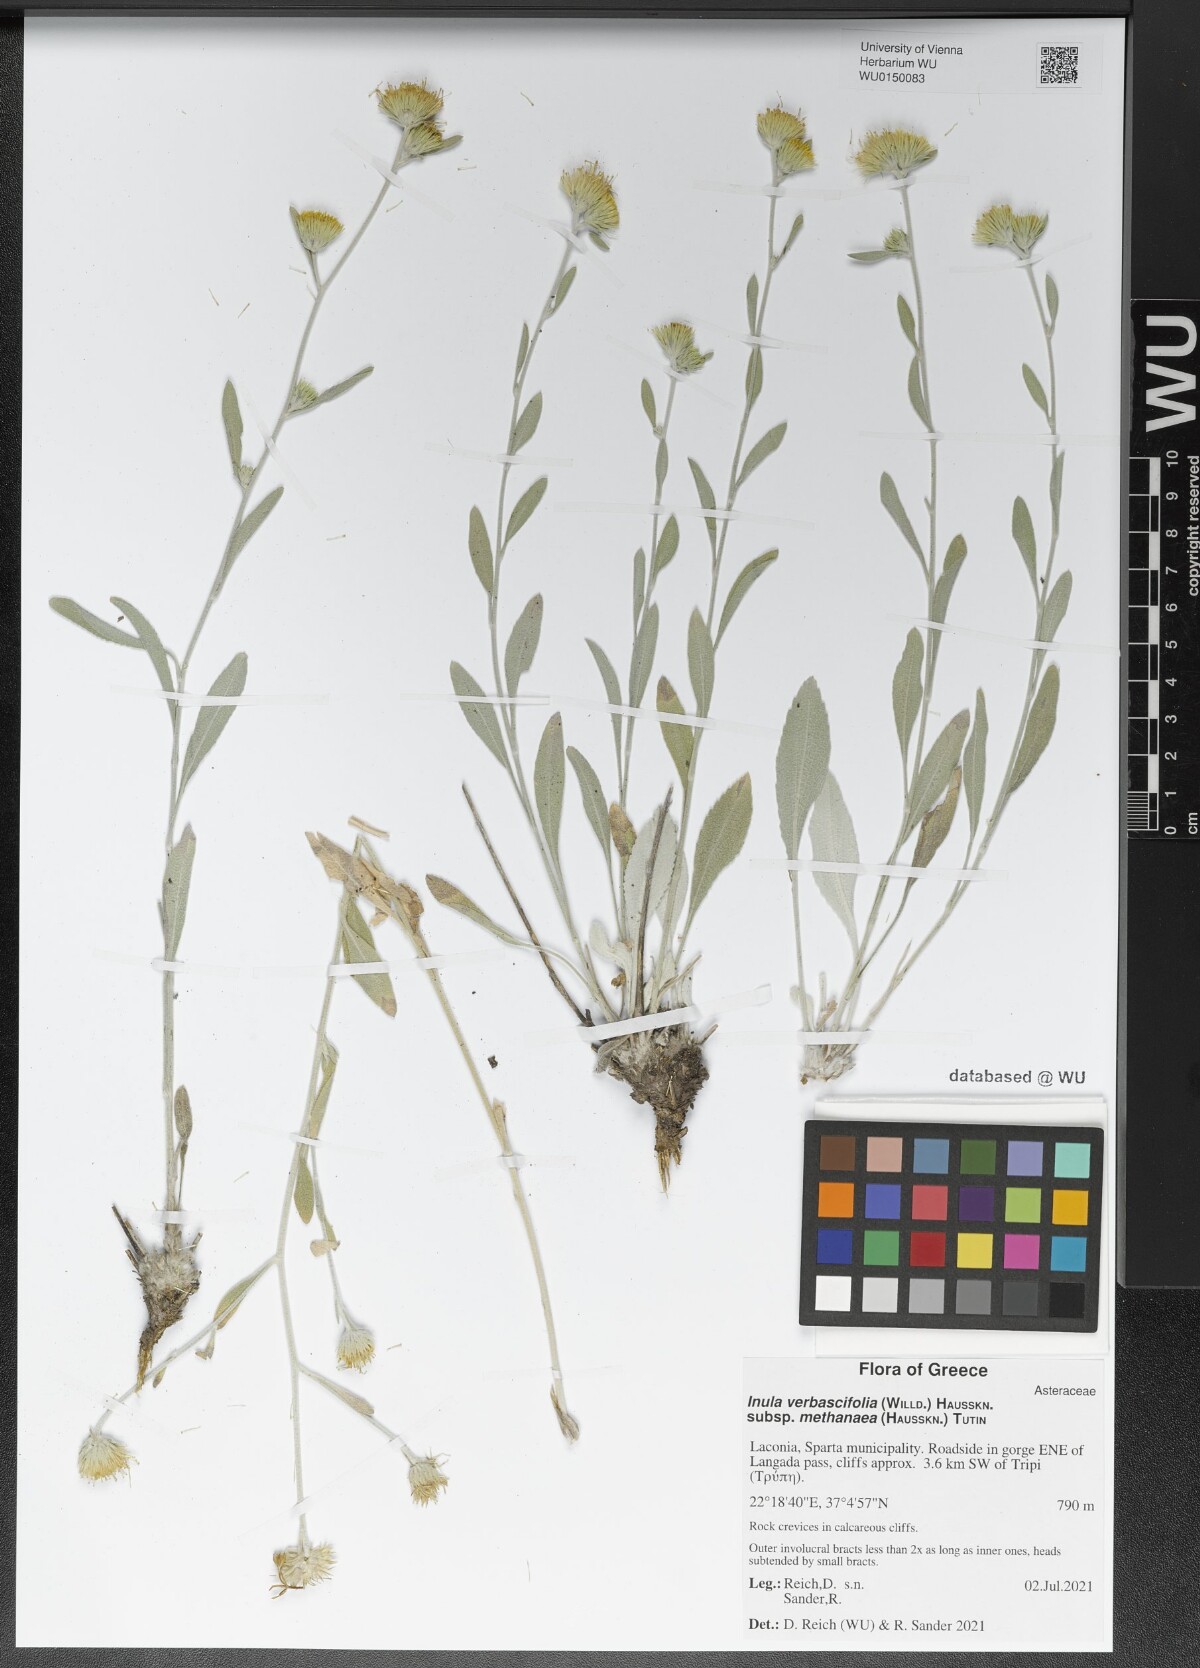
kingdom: Plantae
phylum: Tracheophyta
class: Magnoliopsida
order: Asterales
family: Asteraceae
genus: Pentanema
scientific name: Pentanema verbascifolium
